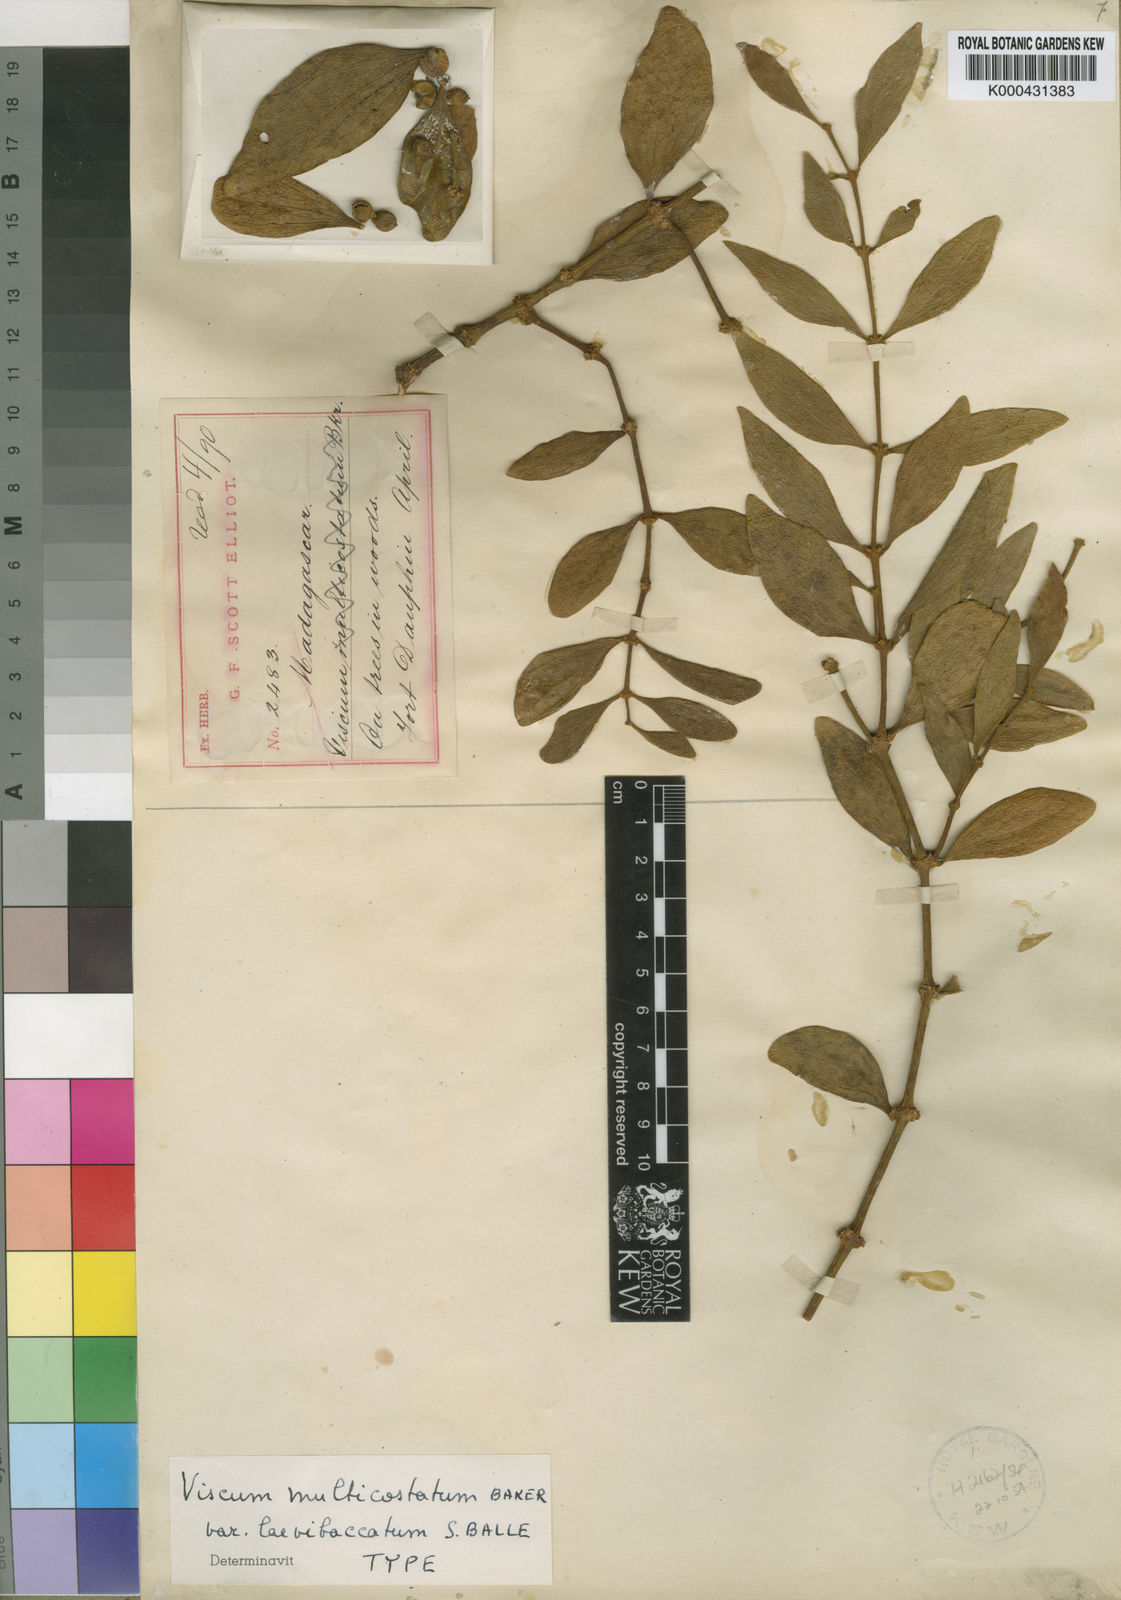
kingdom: Plantae
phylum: Tracheophyta
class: Magnoliopsida
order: Santalales
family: Viscaceae
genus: Viscum
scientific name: Viscum multicostatum
